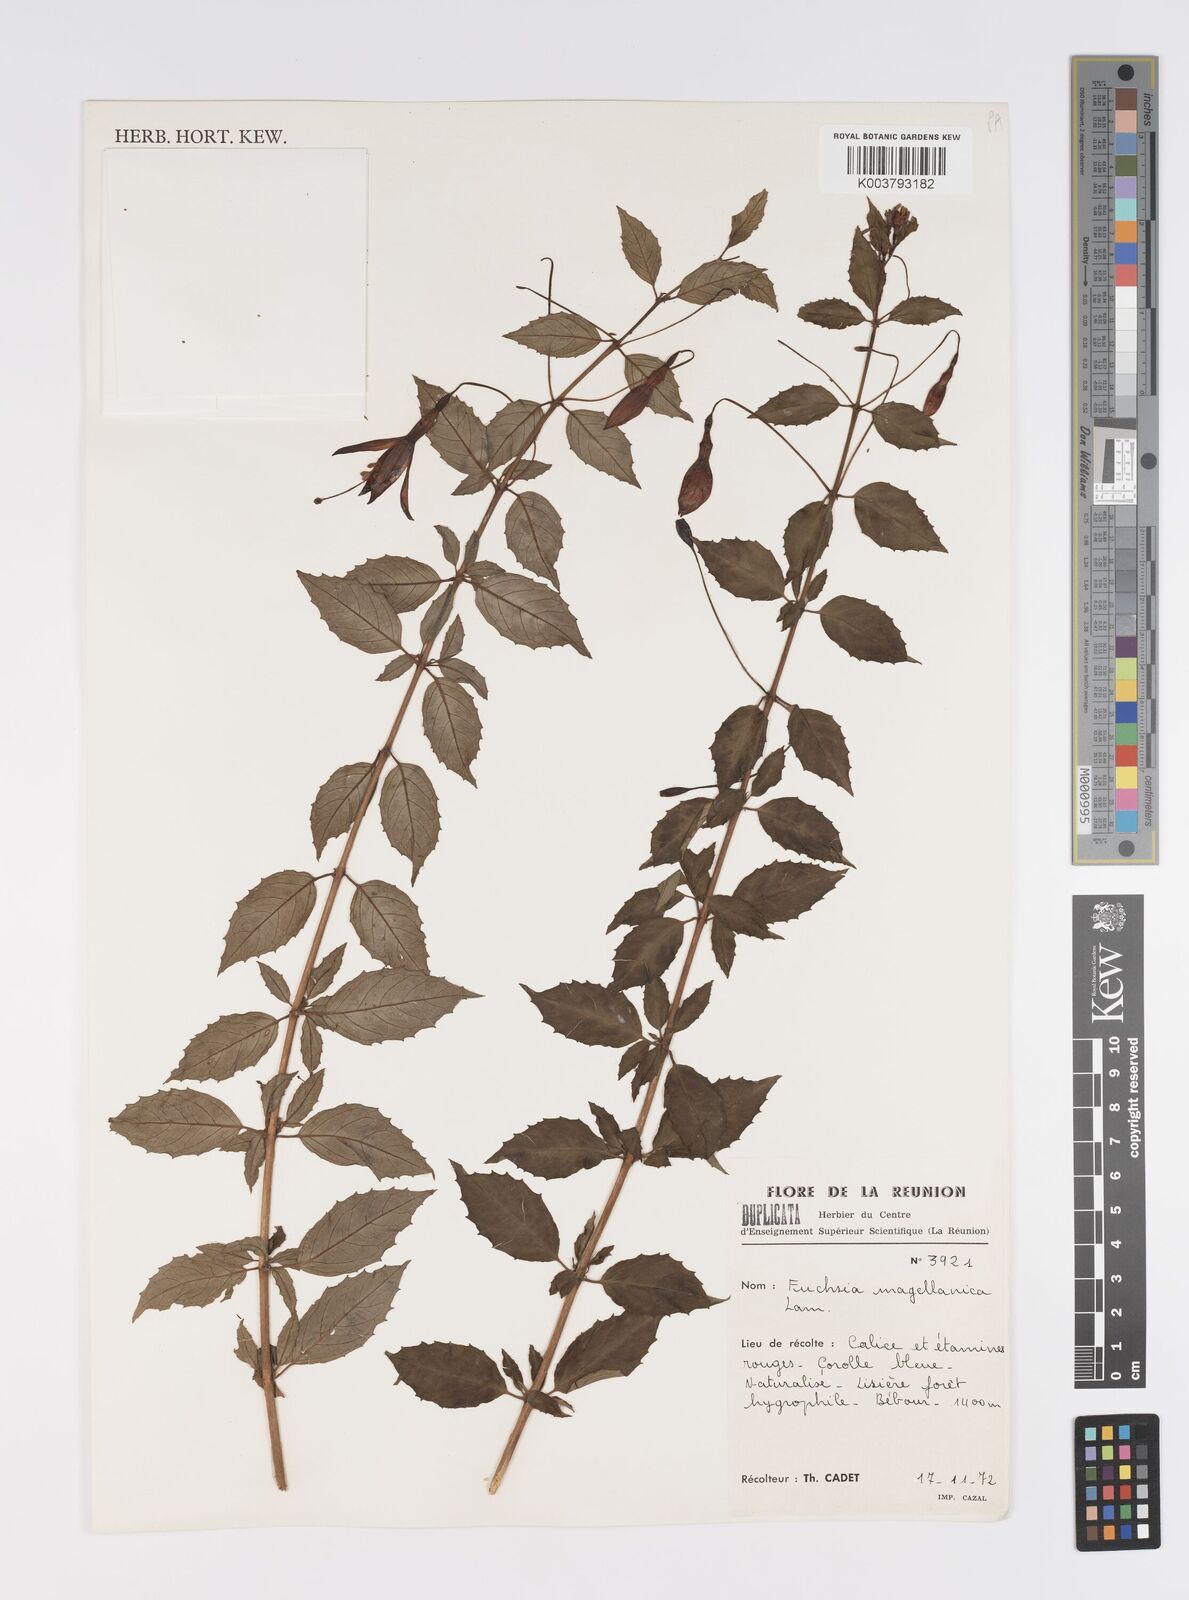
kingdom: Plantae
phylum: Tracheophyta
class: Magnoliopsida
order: Myrtales
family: Onagraceae
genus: Fuchsia
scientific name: Fuchsia
